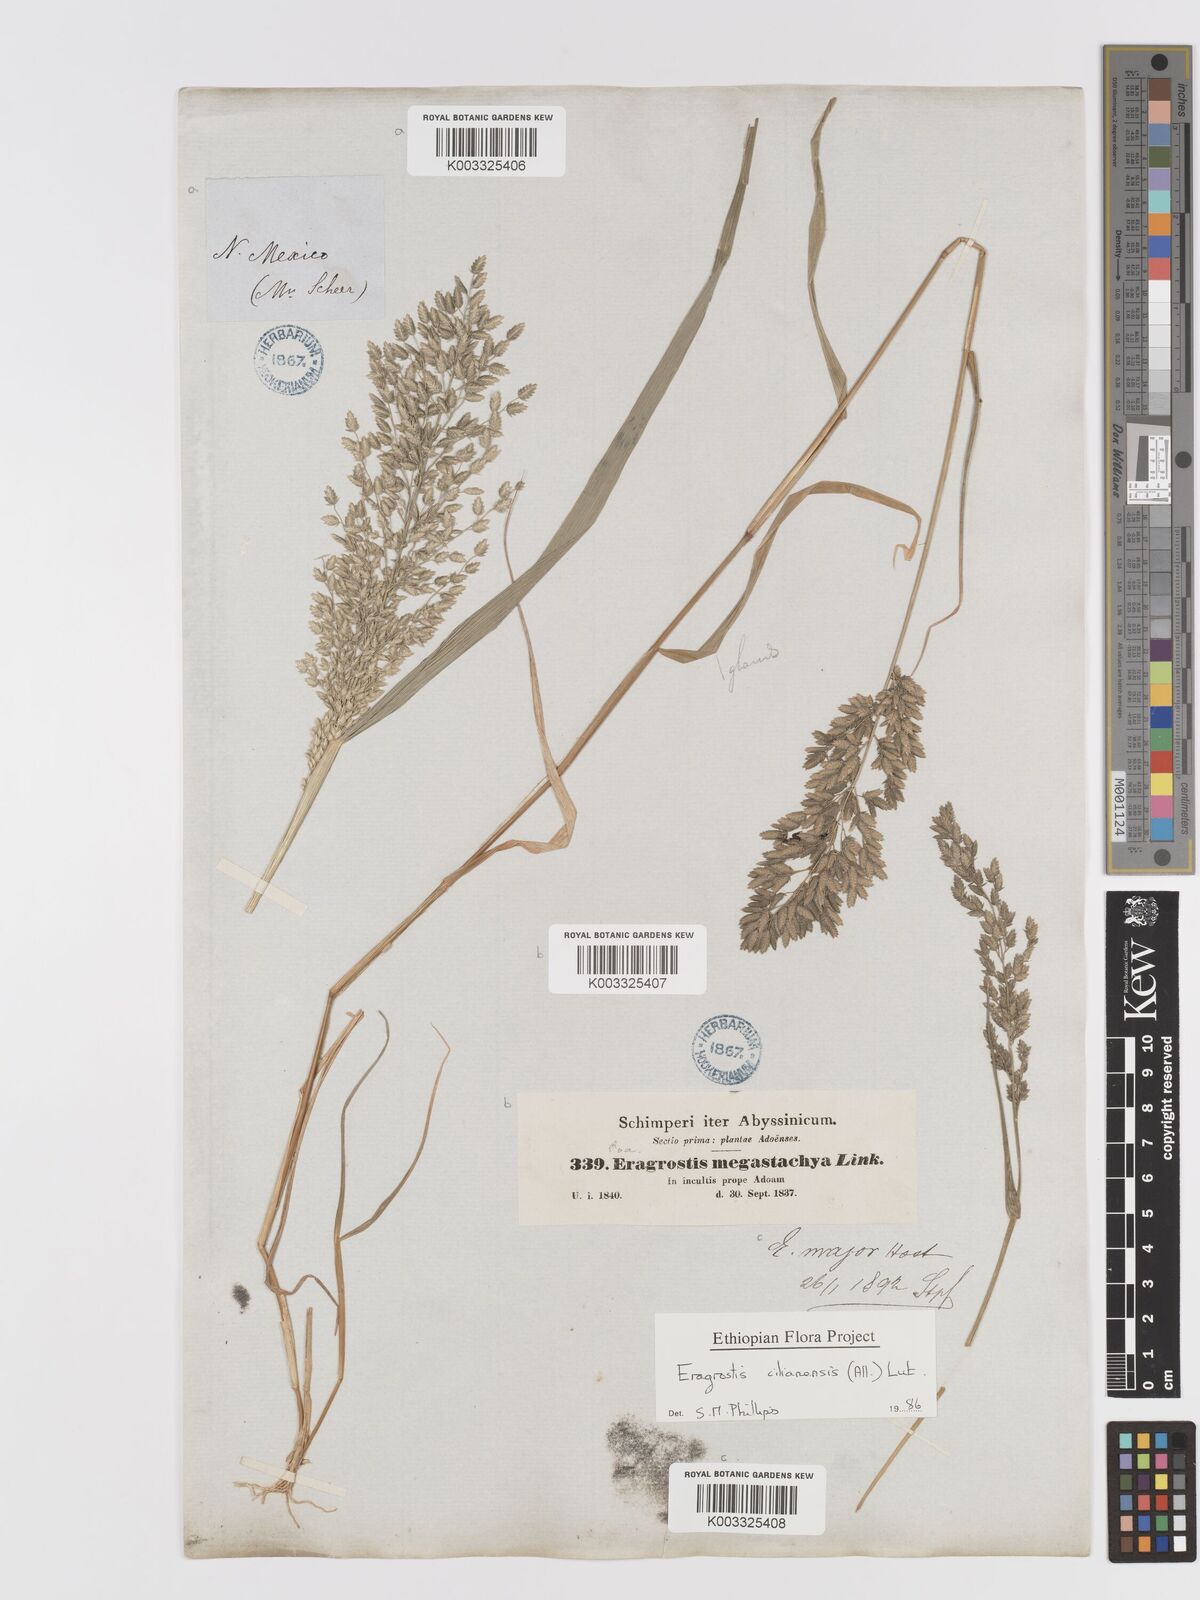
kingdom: Plantae
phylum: Tracheophyta
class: Liliopsida
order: Poales
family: Poaceae
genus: Eragrostis
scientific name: Eragrostis cilianensis
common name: Stinkgrass
